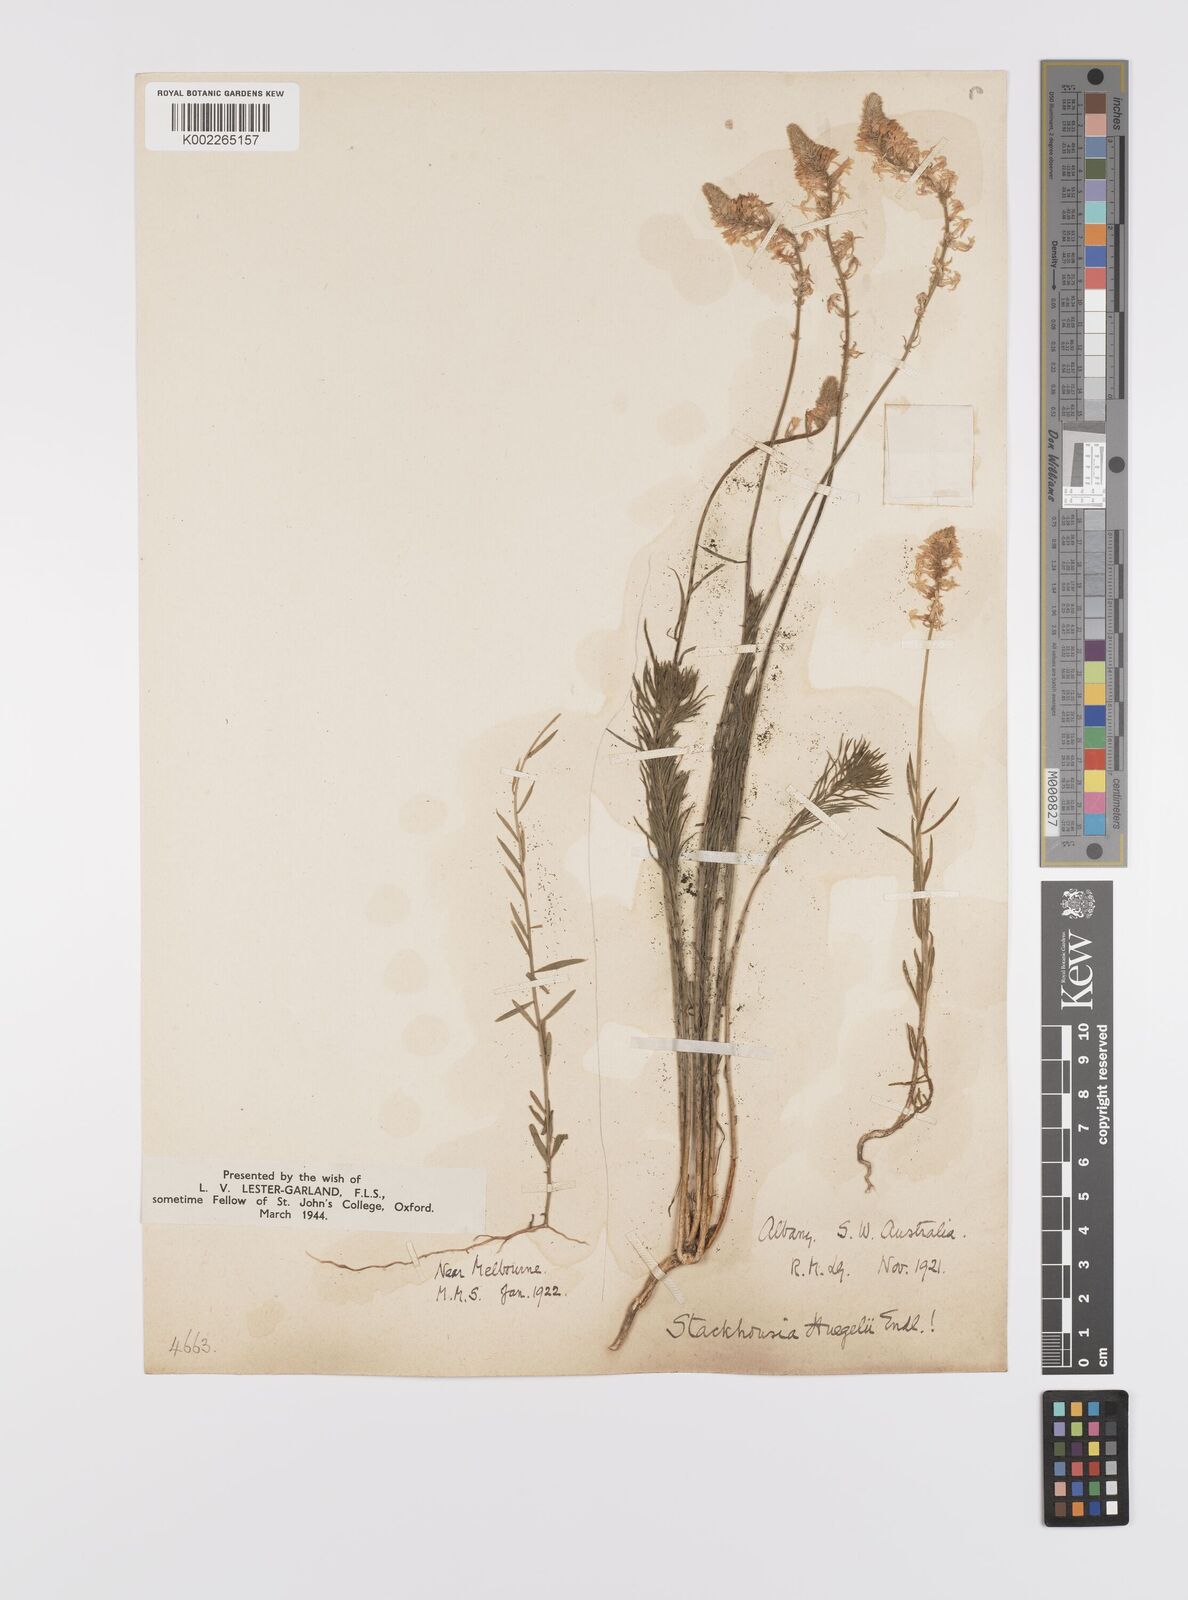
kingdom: Plantae
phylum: Tracheophyta
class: Magnoliopsida
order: Celastrales
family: Celastraceae
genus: Stackhousia
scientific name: Stackhousia monogyna
